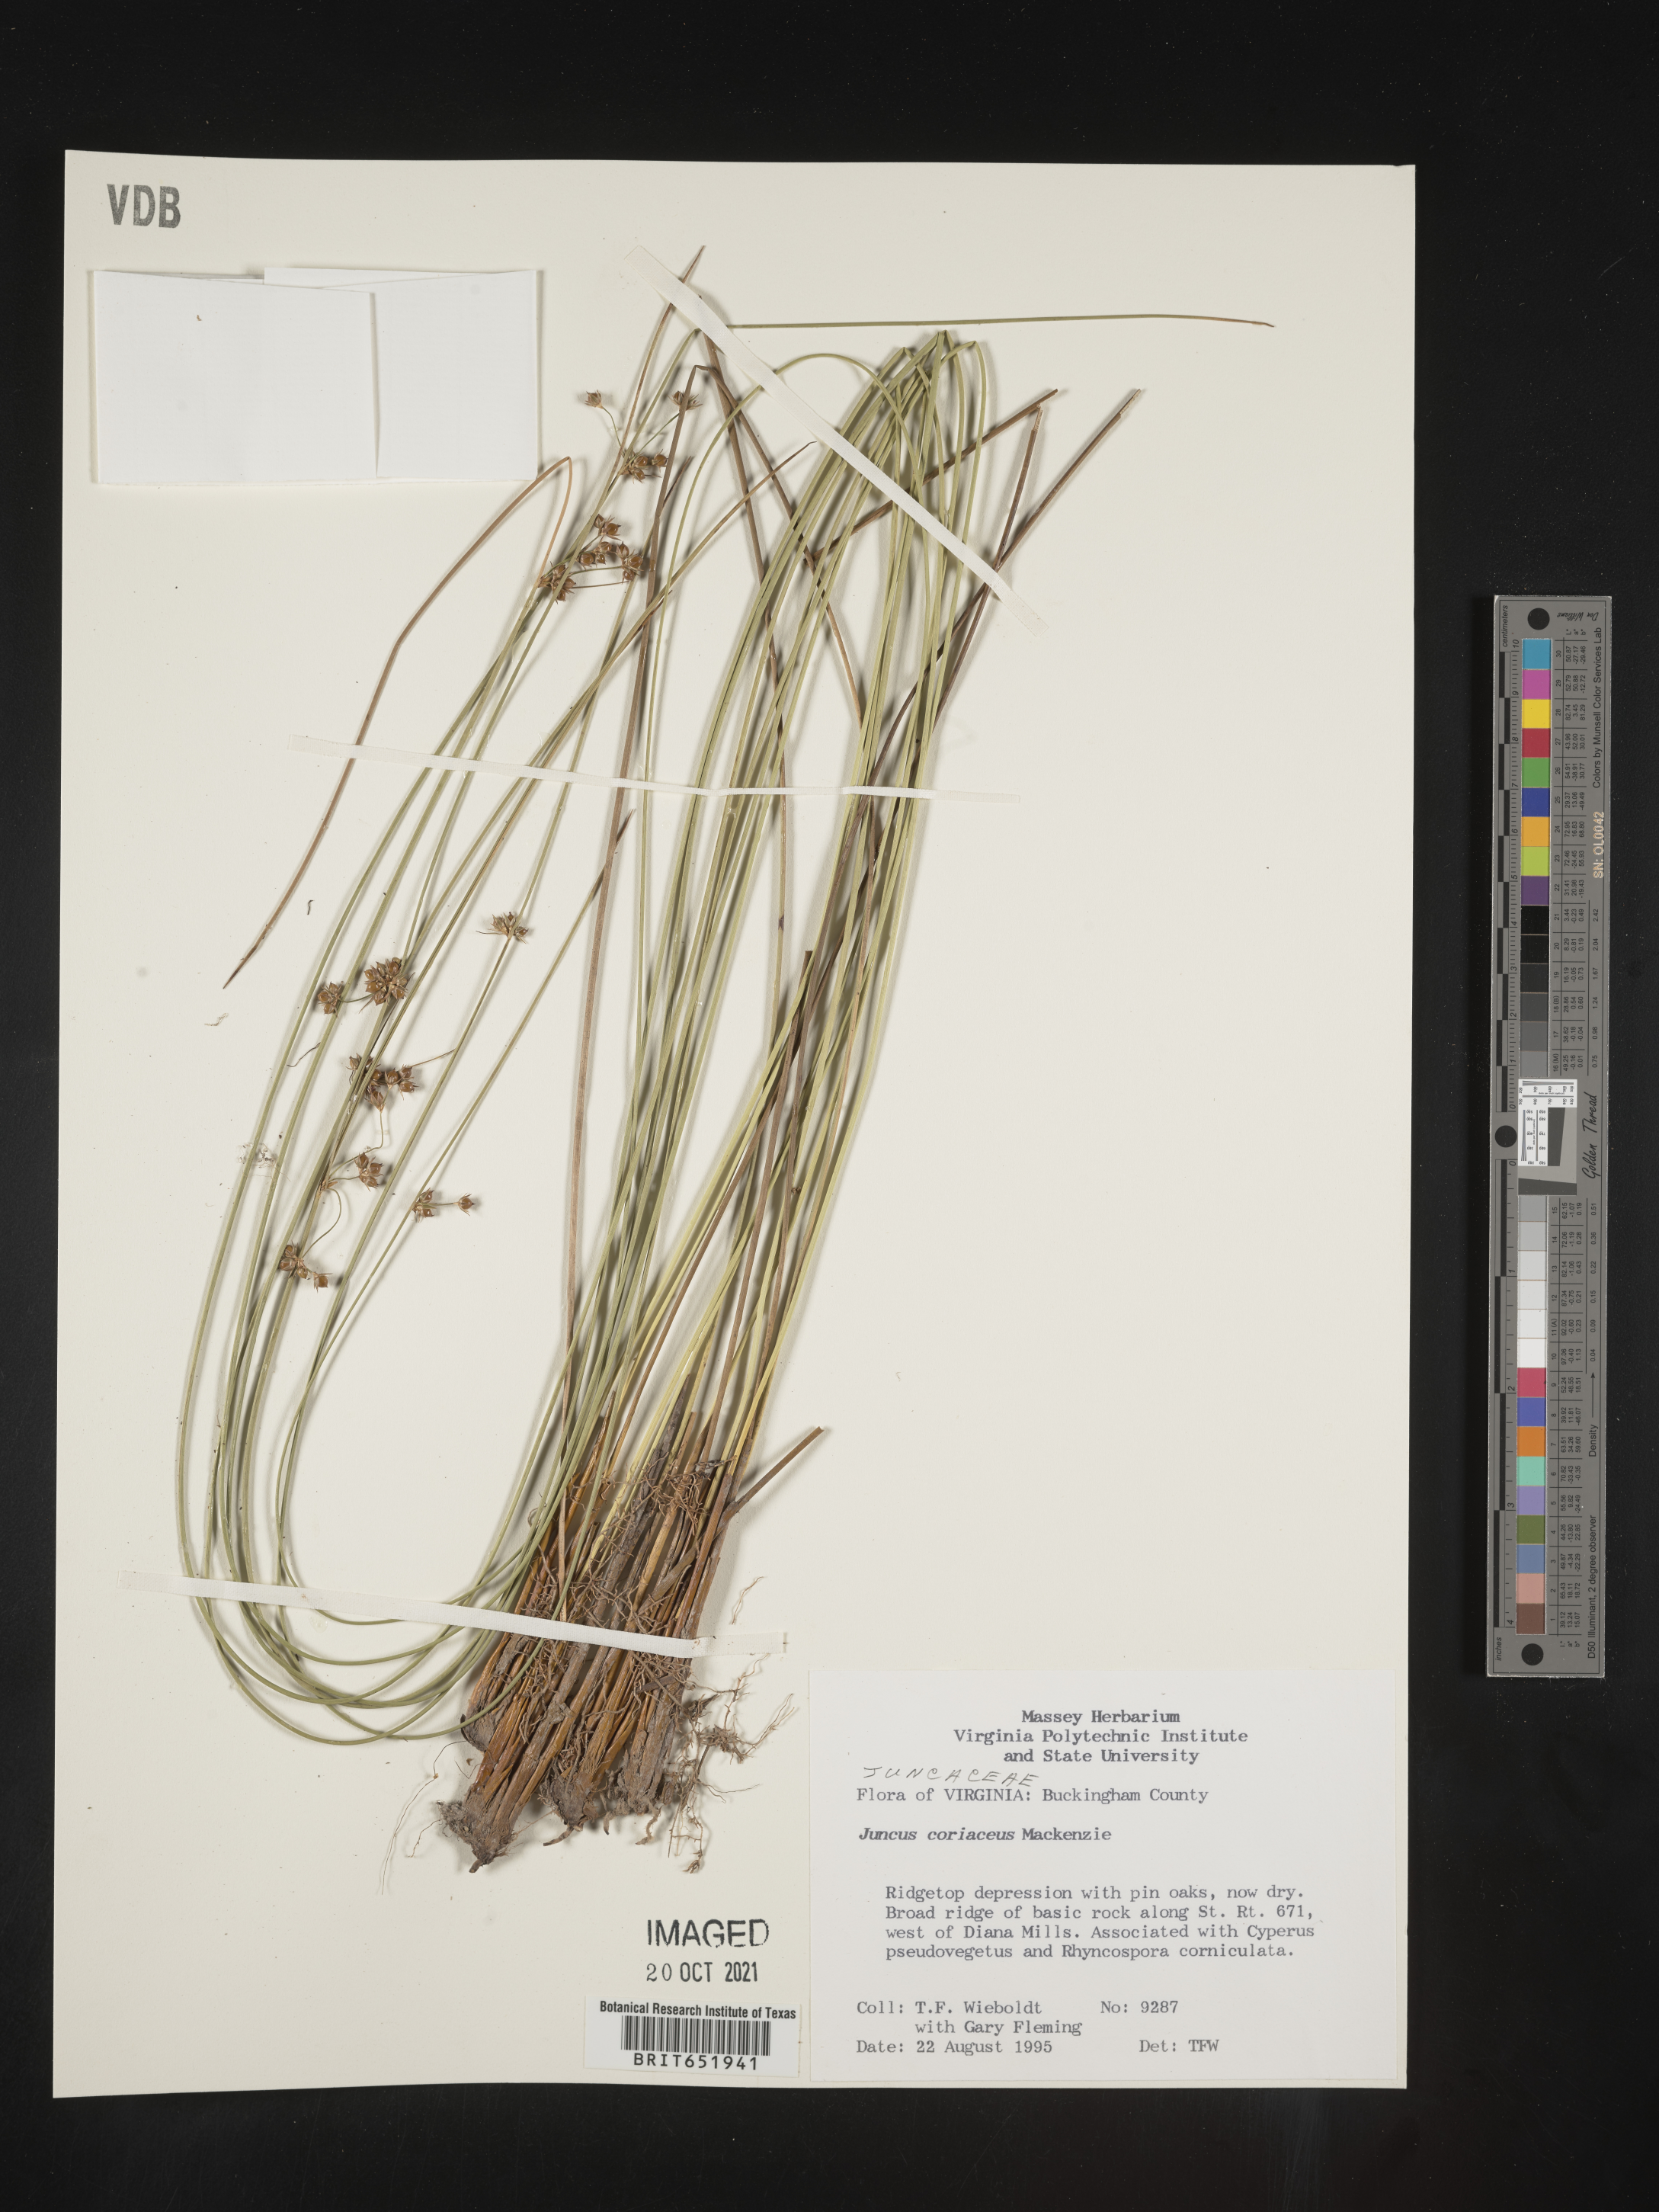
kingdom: Plantae
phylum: Tracheophyta
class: Liliopsida
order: Poales
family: Juncaceae
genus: Juncus
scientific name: Juncus coriaceus
